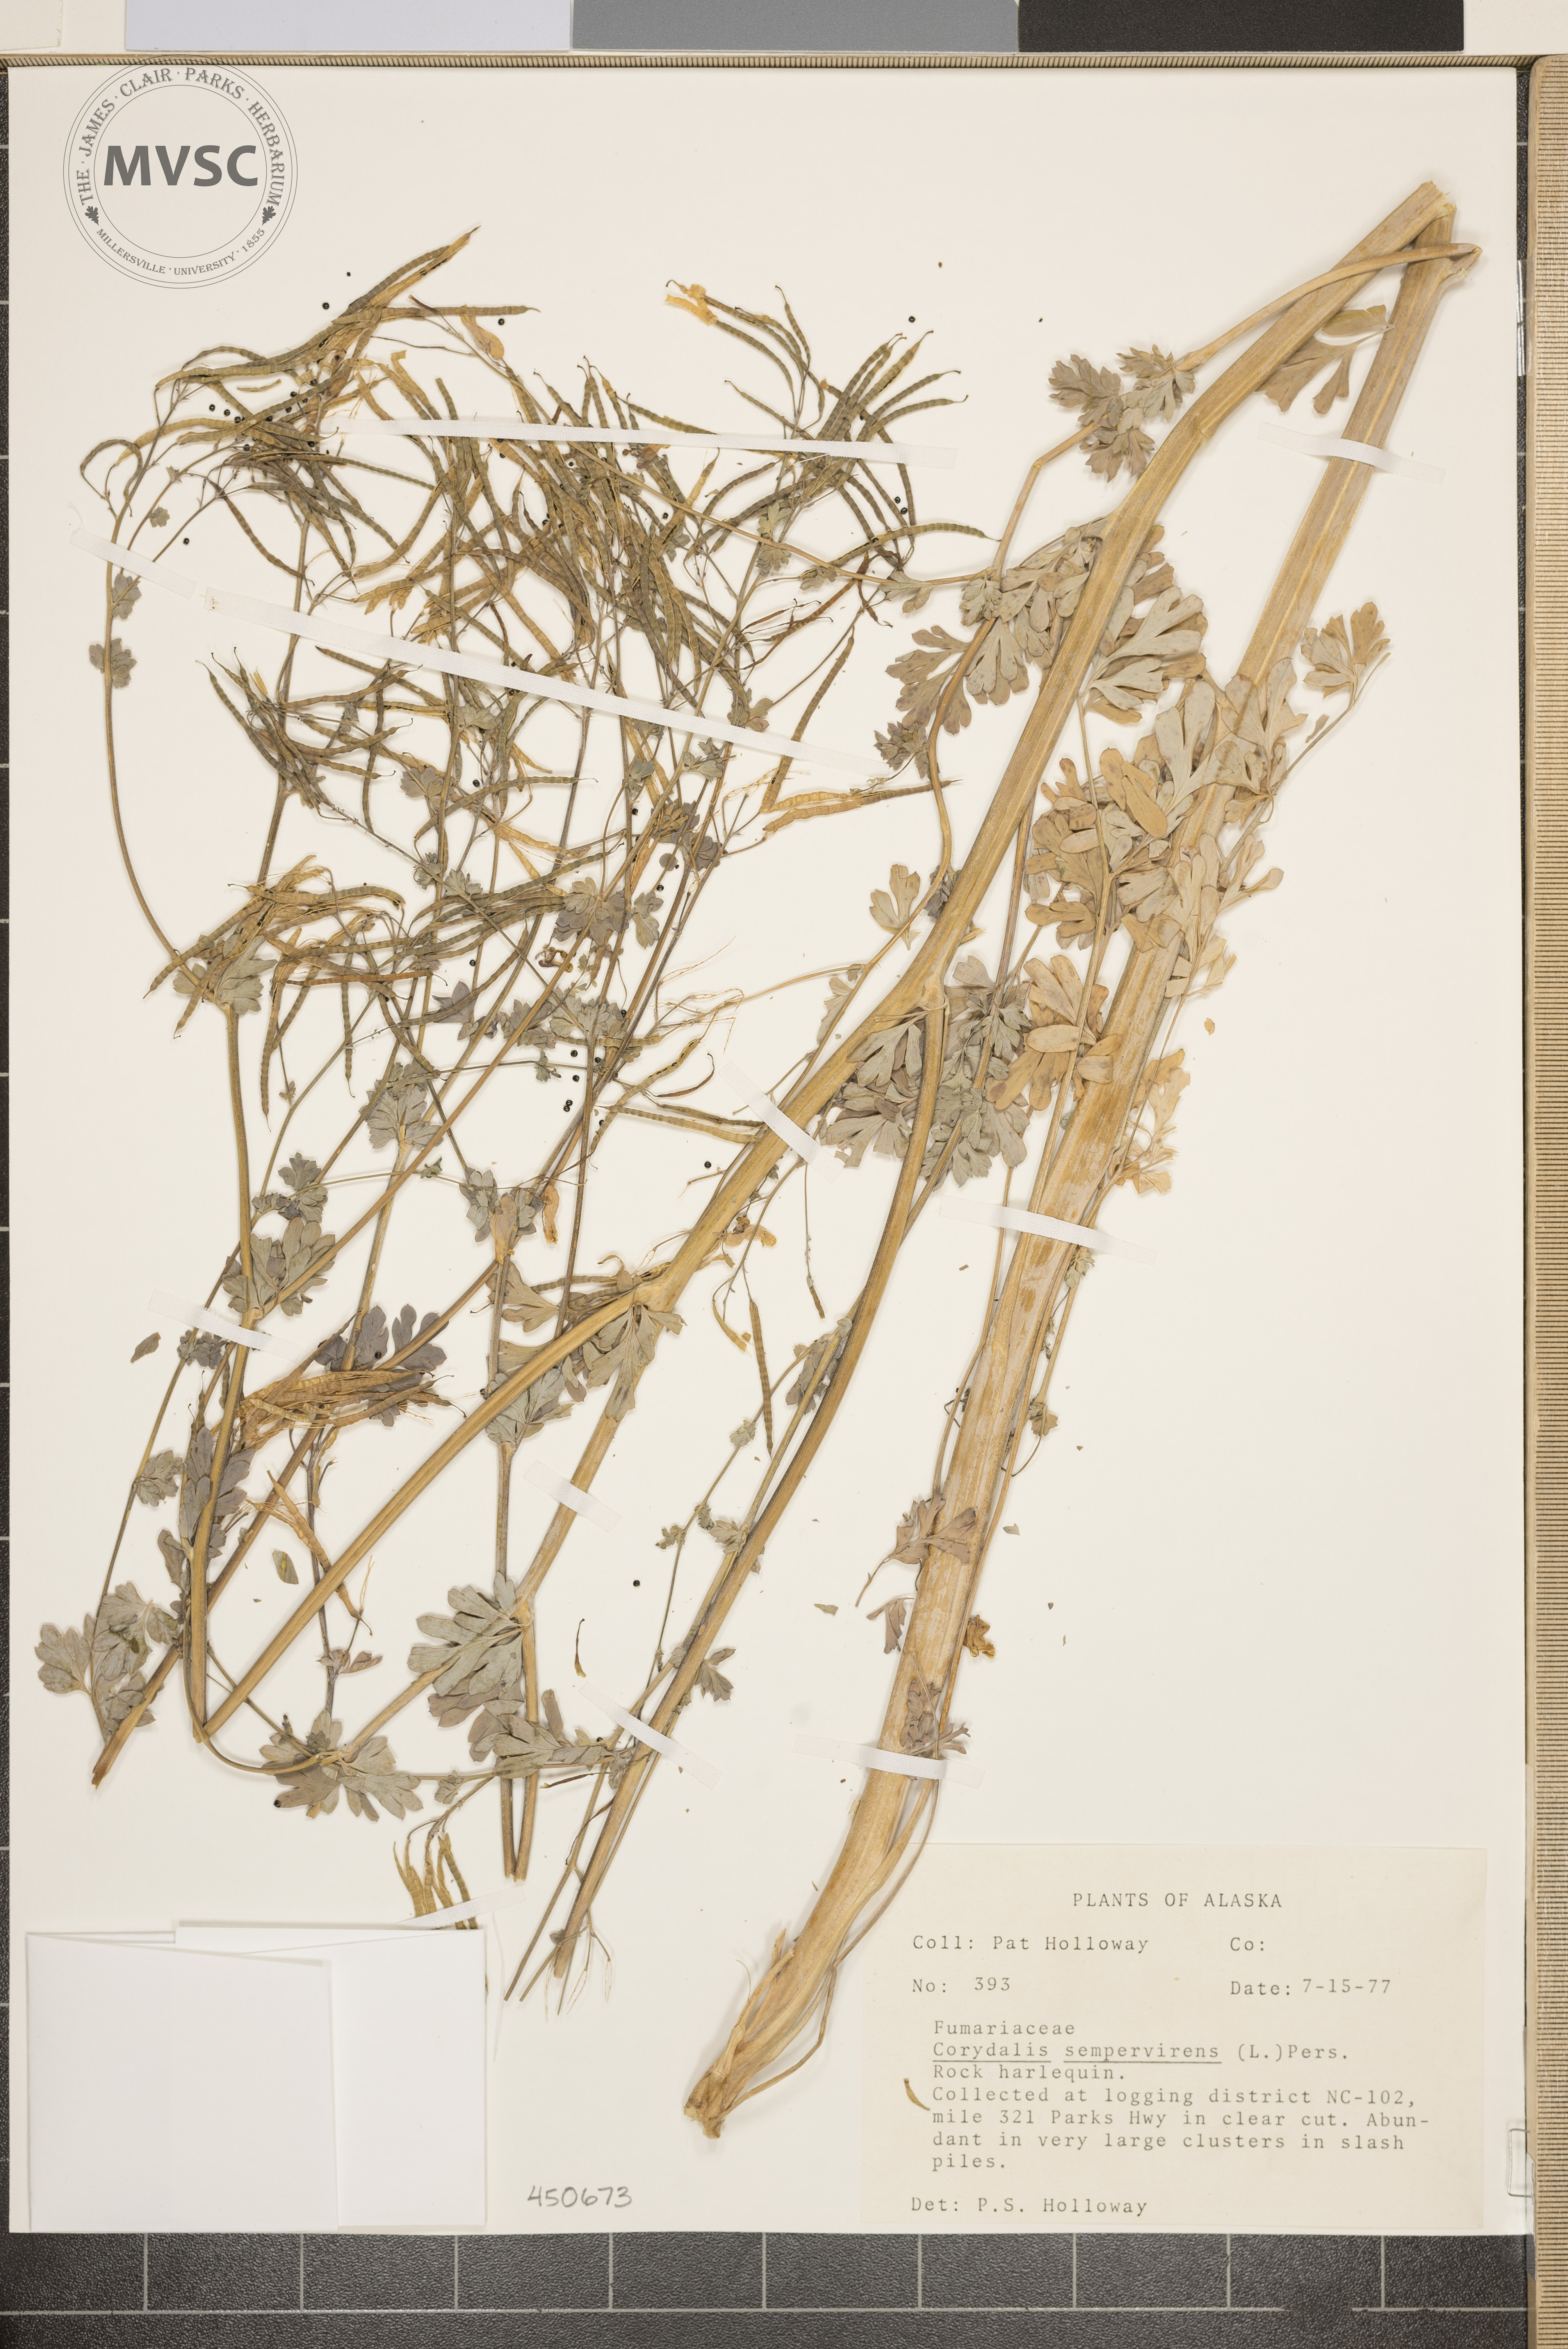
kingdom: Plantae
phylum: Tracheophyta
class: Magnoliopsida
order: Ranunculales
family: Papaveraceae
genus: Capnoides
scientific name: Capnoides sempervirens
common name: Rock harlequin
